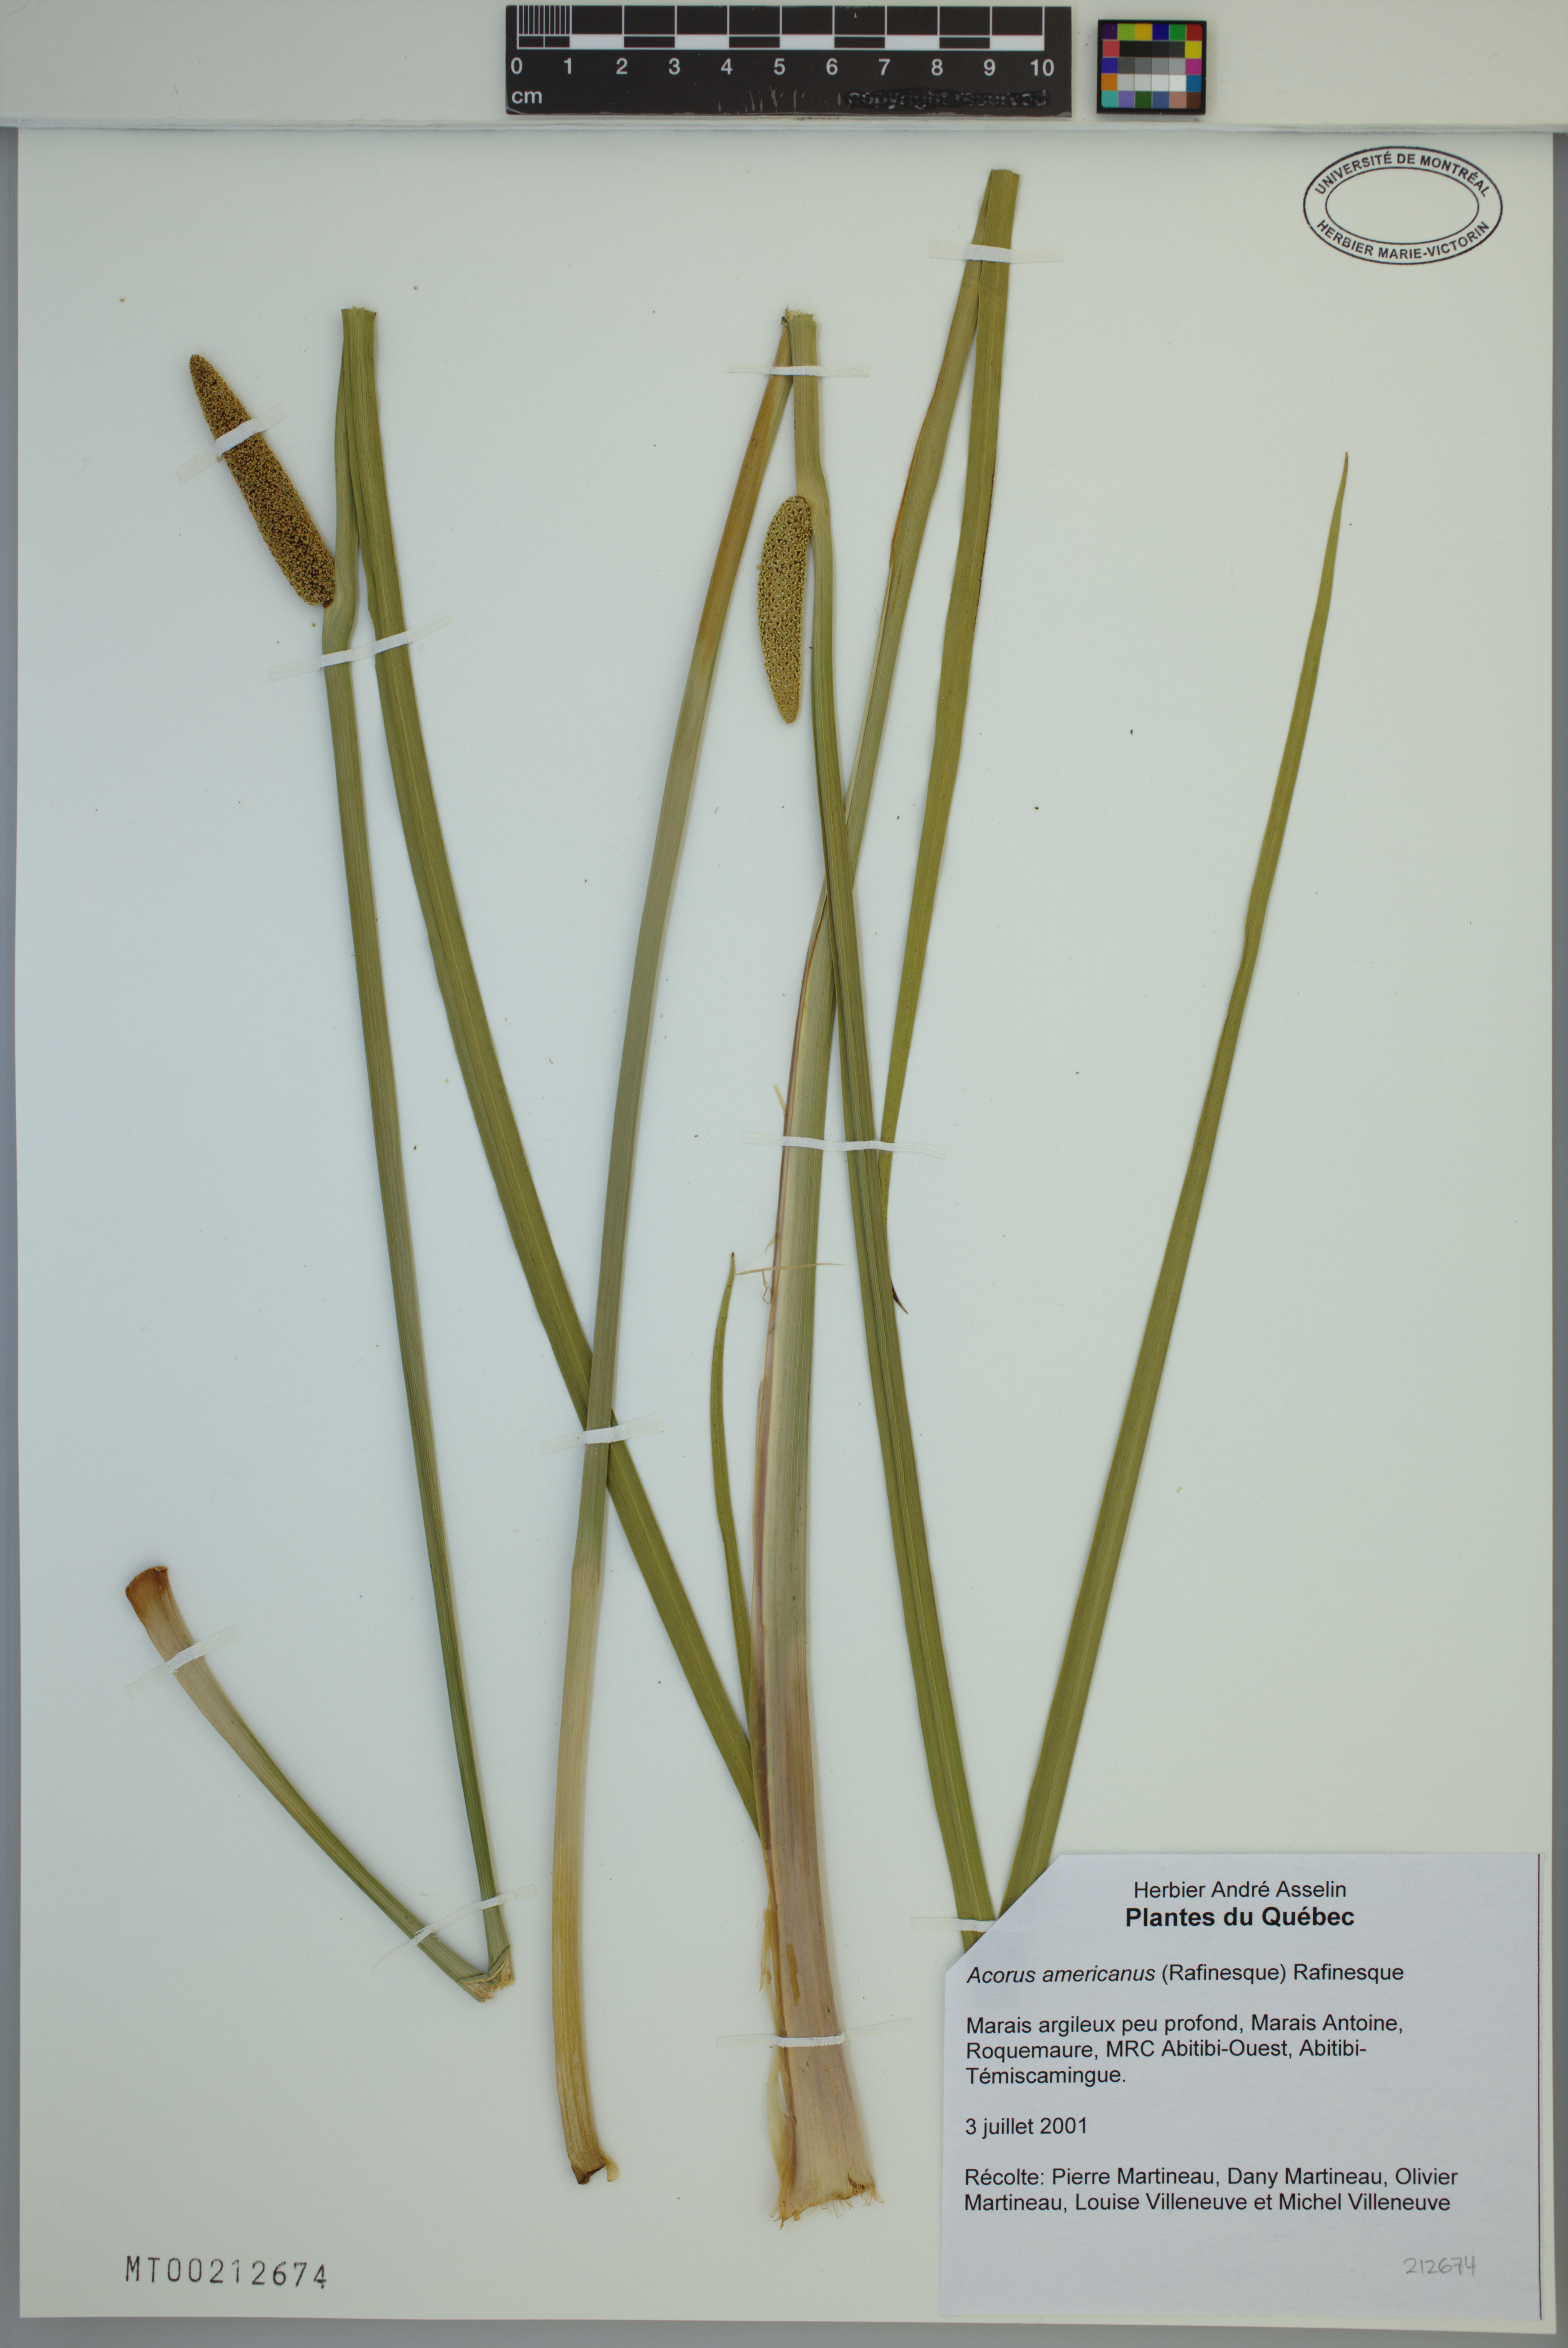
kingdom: Plantae
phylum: Tracheophyta
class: Liliopsida
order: Acorales
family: Acoraceae
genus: Acorus
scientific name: Acorus calamus
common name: Sweet-flag
